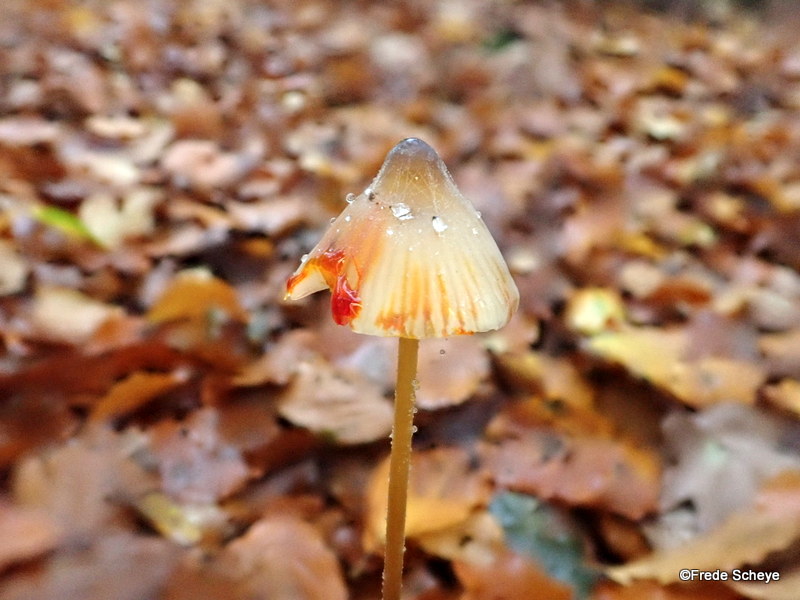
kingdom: Fungi
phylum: Basidiomycota
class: Agaricomycetes
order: Agaricales
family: Mycenaceae
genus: Mycena
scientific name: Mycena crocata
